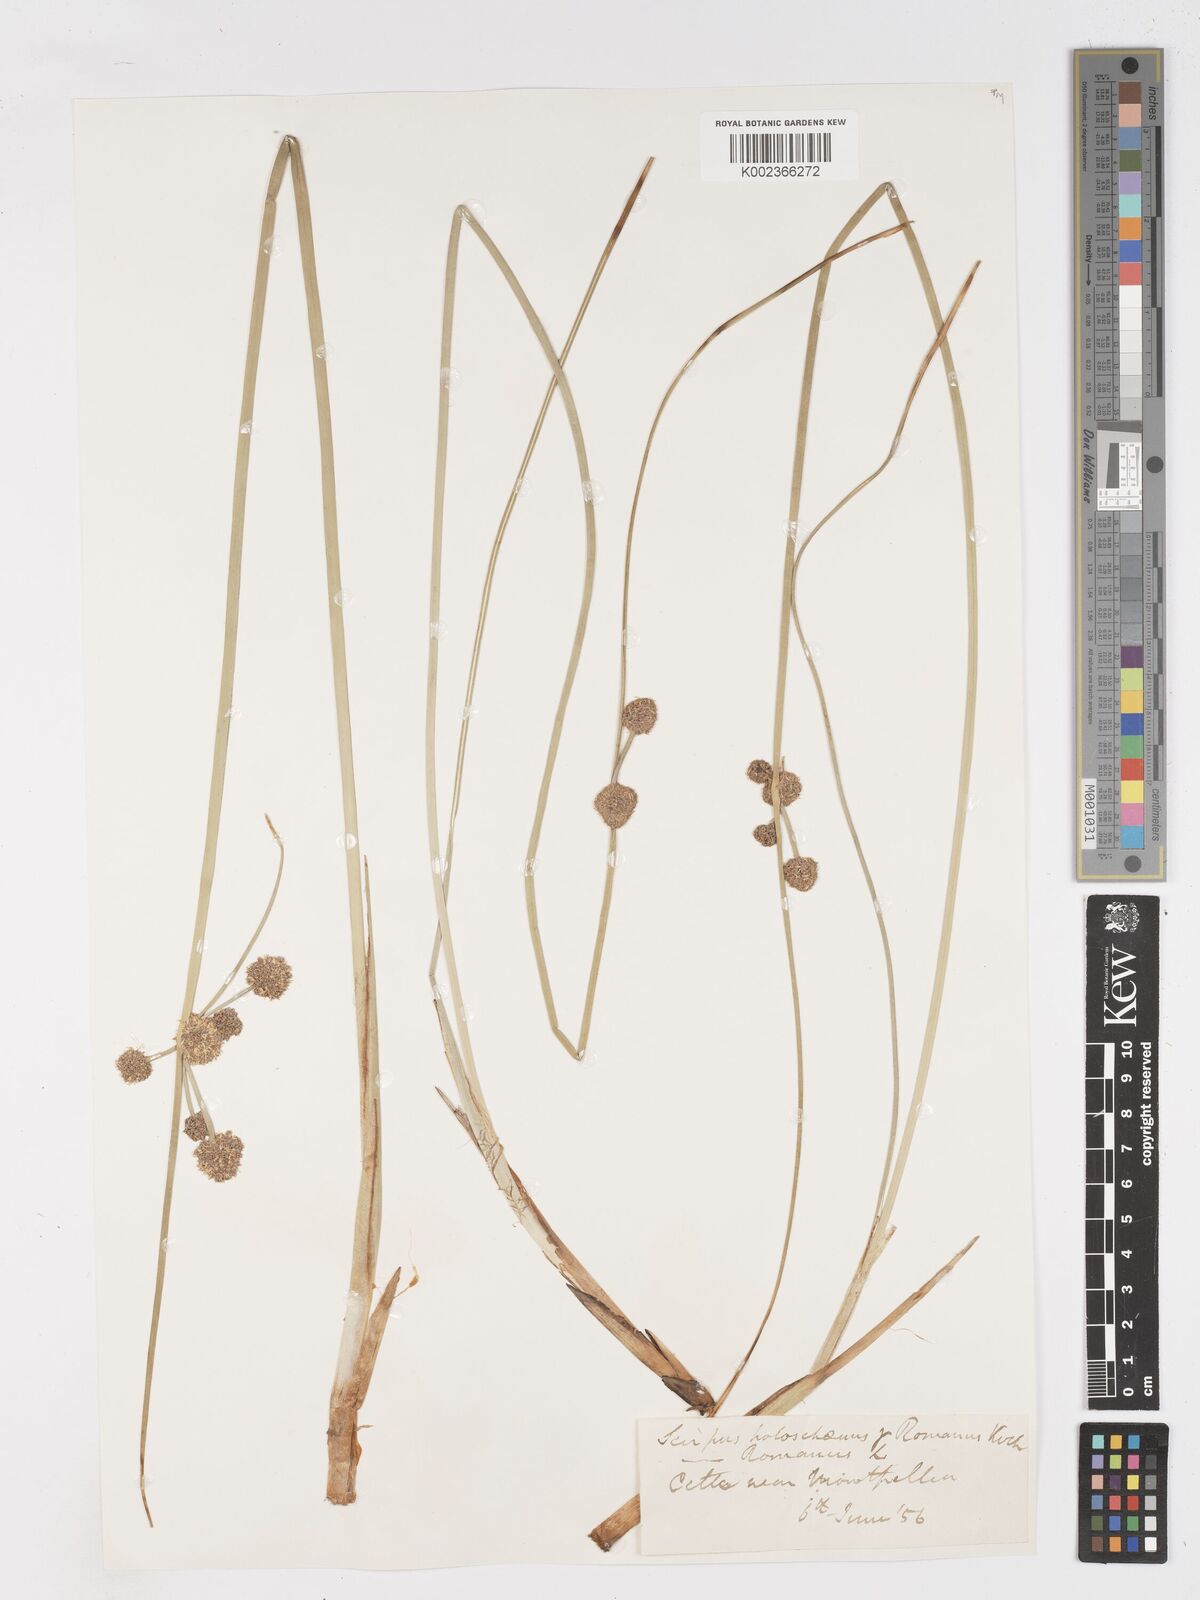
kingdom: Plantae
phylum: Tracheophyta
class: Liliopsida
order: Poales
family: Cyperaceae
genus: Scirpoides
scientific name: Scirpoides holoschoenus
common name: Round-headed club-rush
